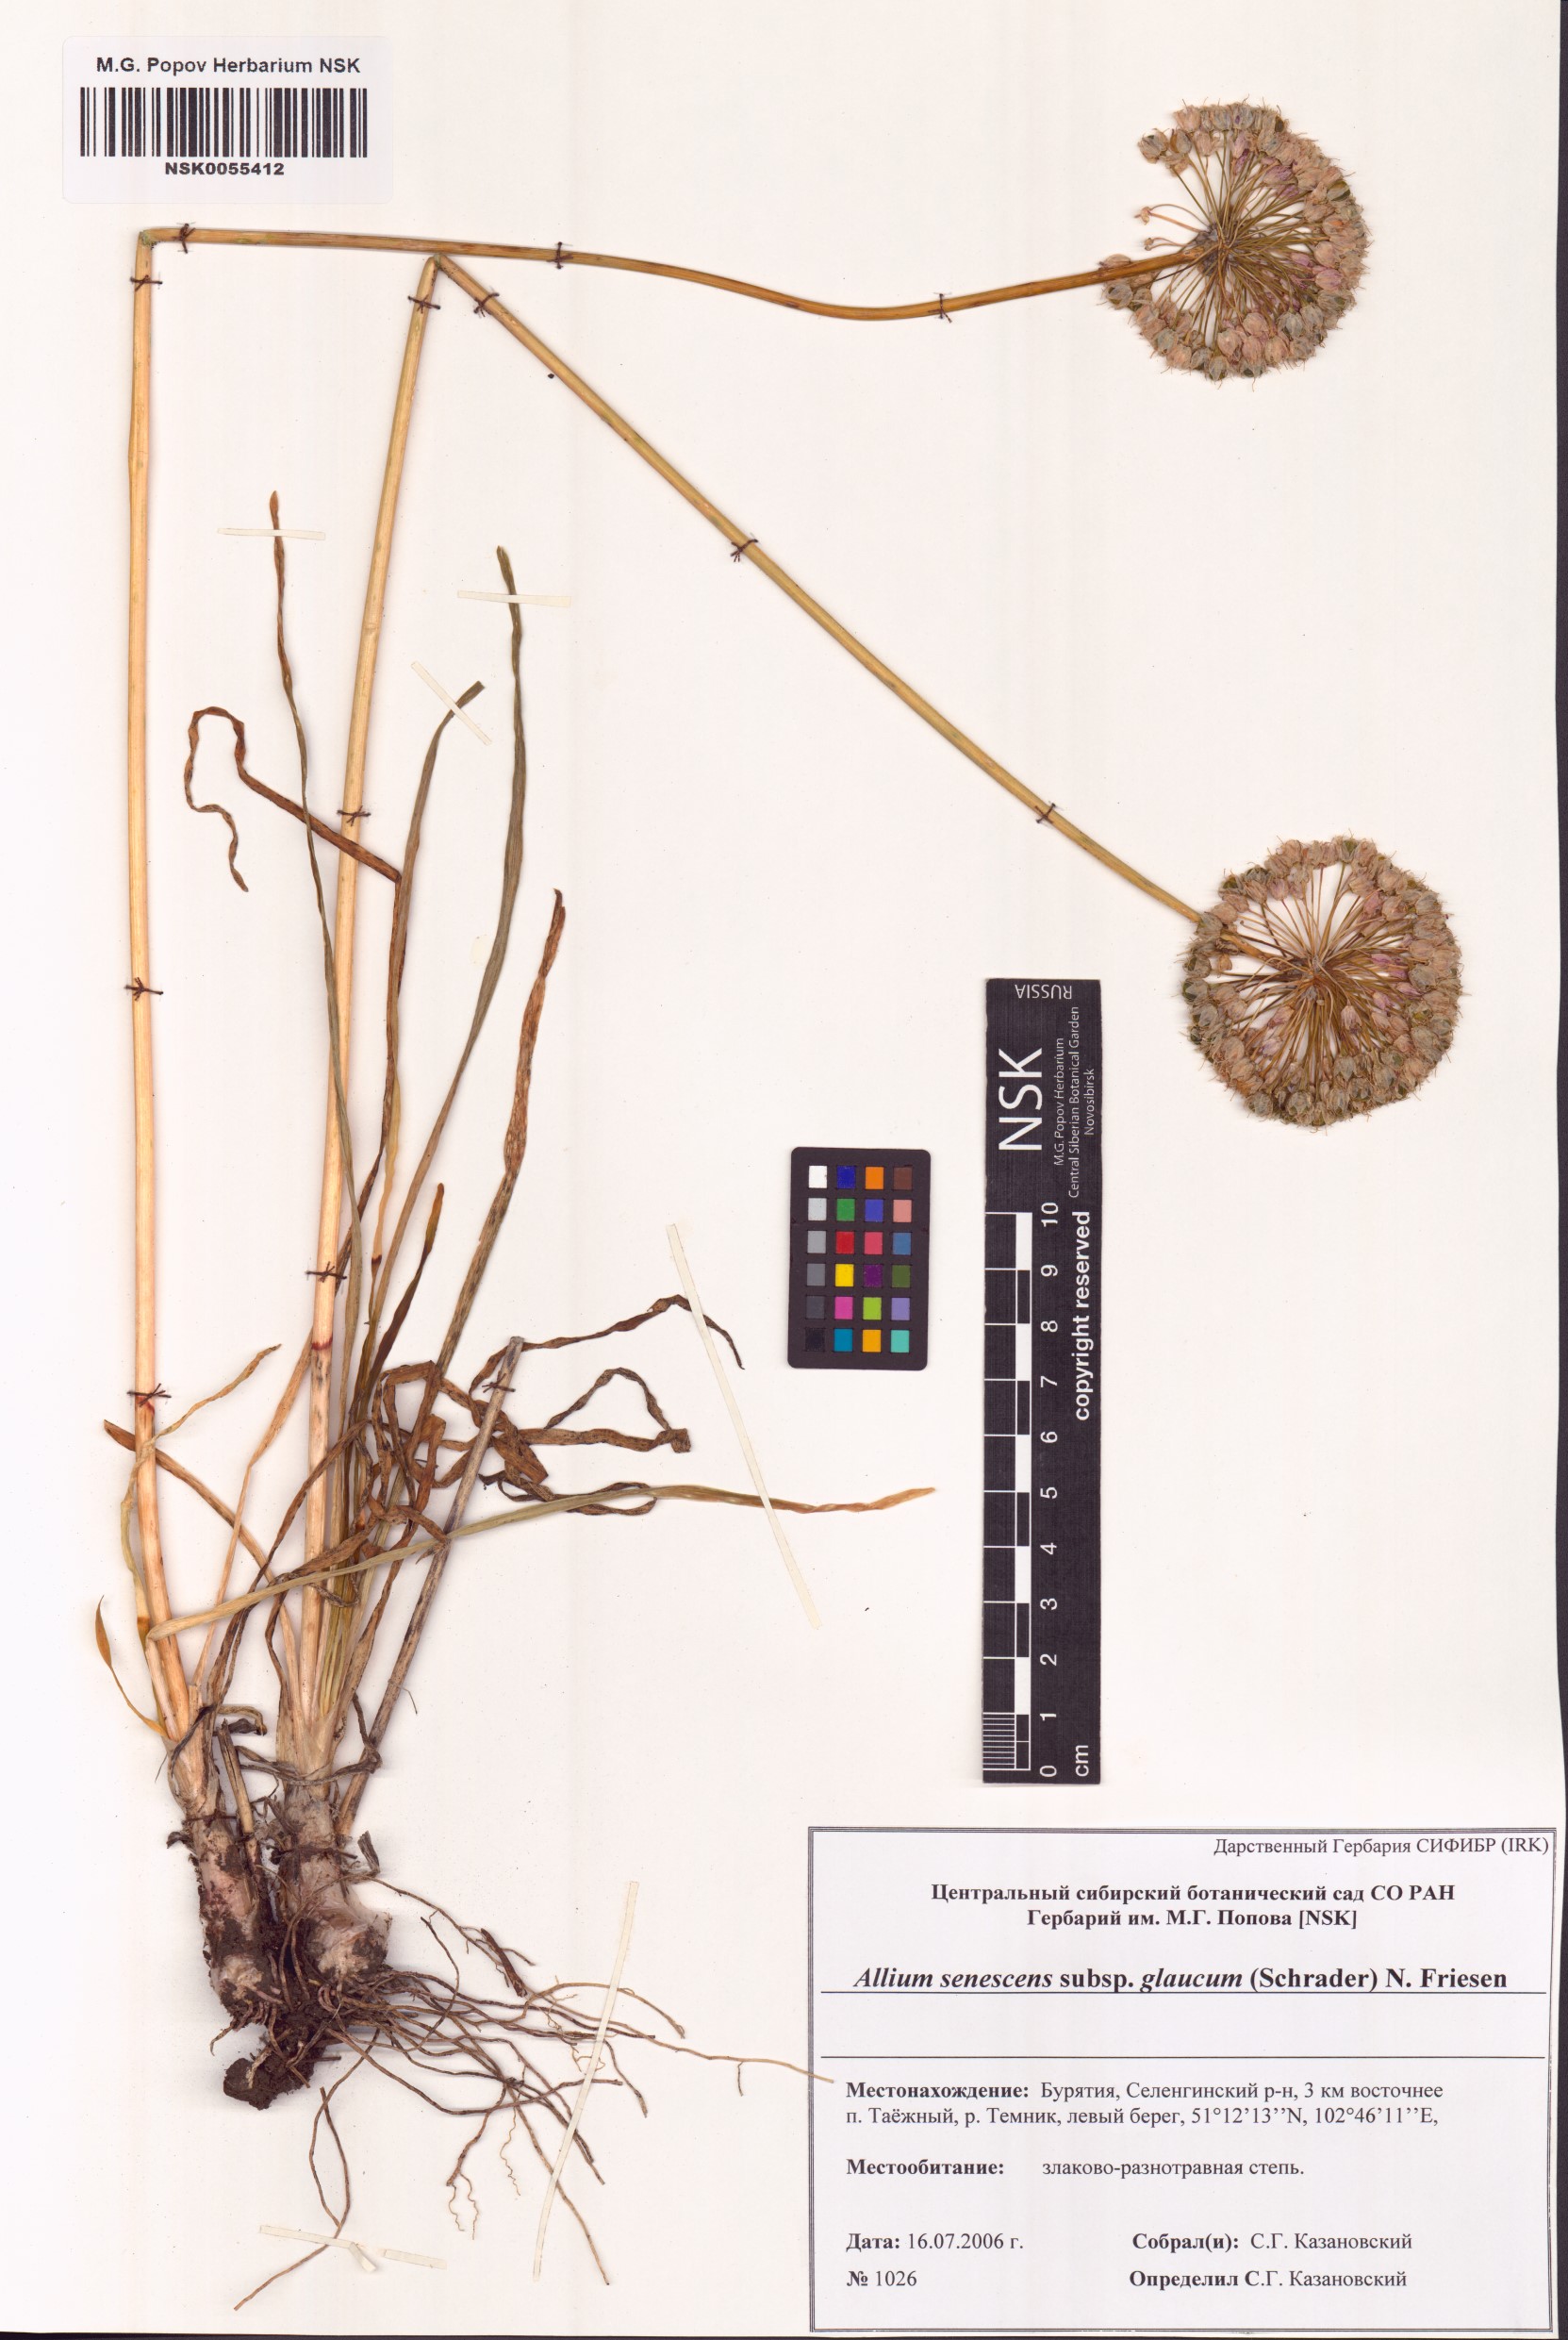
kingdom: Plantae
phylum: Tracheophyta
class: Liliopsida
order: Asparagales
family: Amaryllidaceae
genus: Allium
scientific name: Allium senescens
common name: German garlic
